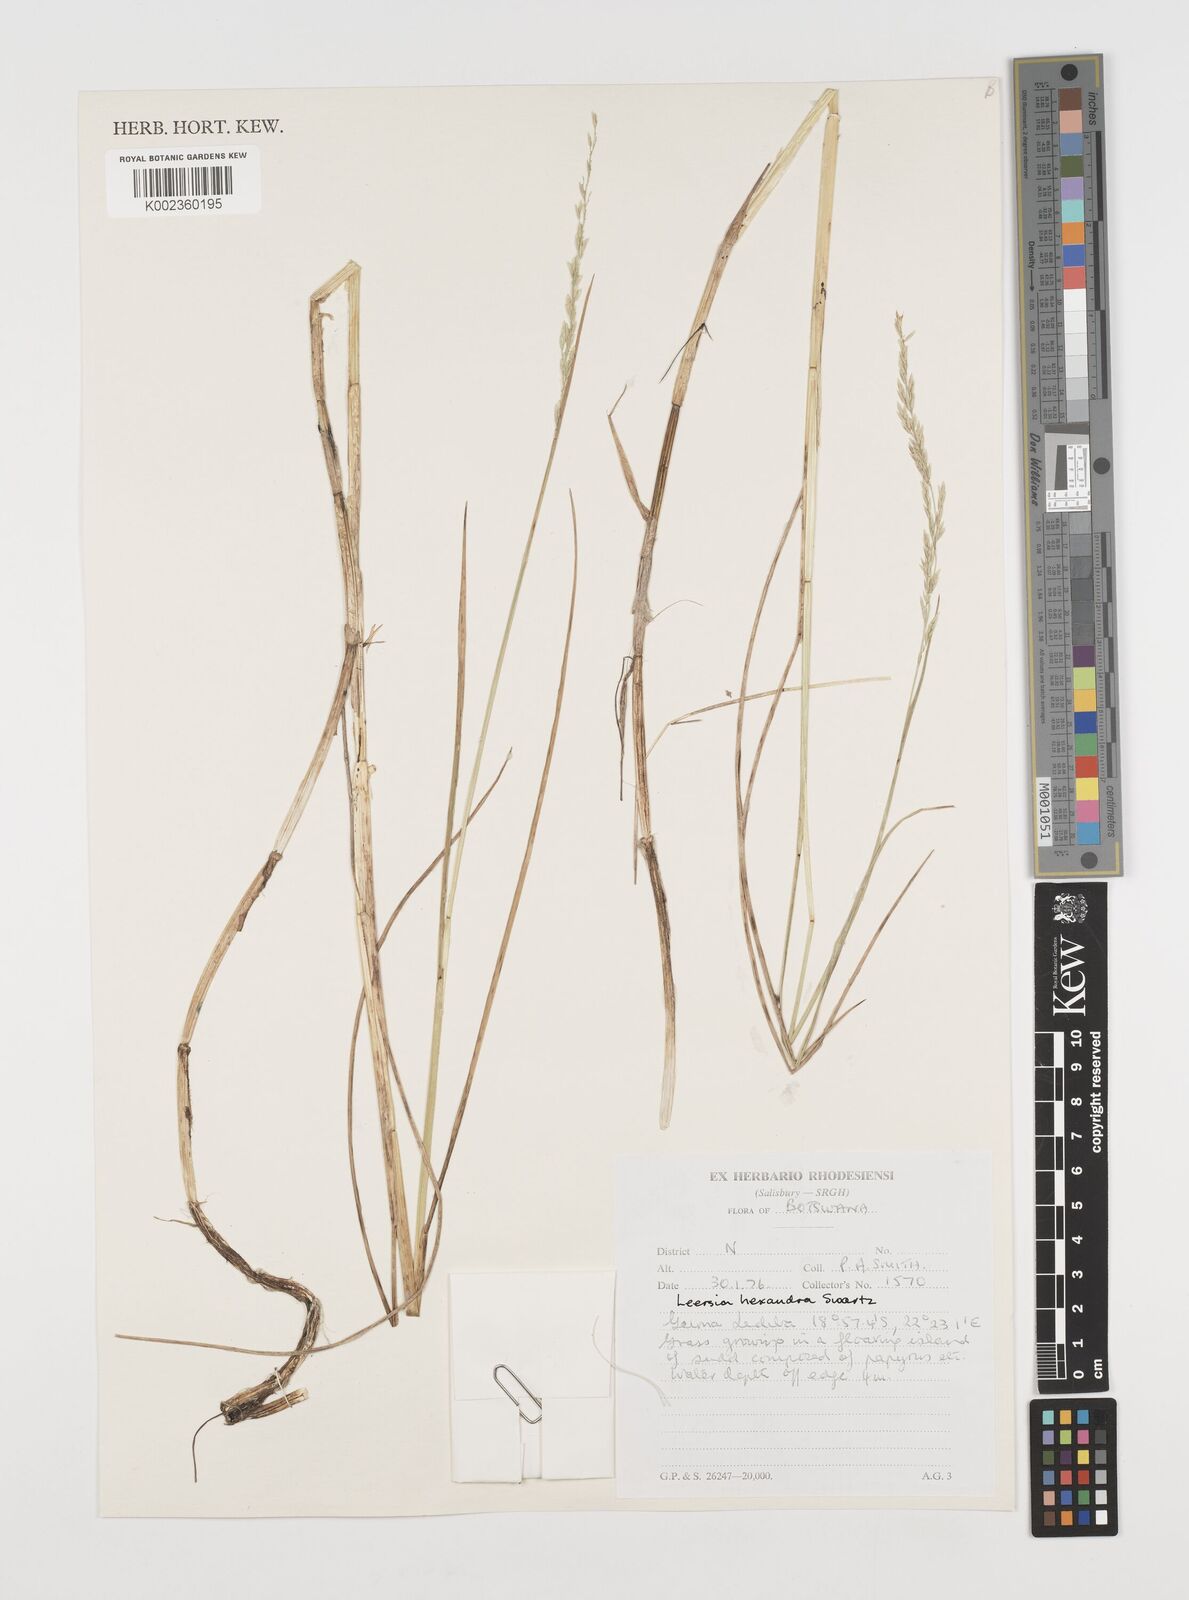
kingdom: Plantae
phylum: Tracheophyta
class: Liliopsida
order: Poales
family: Poaceae
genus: Leersia
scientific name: Leersia hexandra
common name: Southern cut grass
